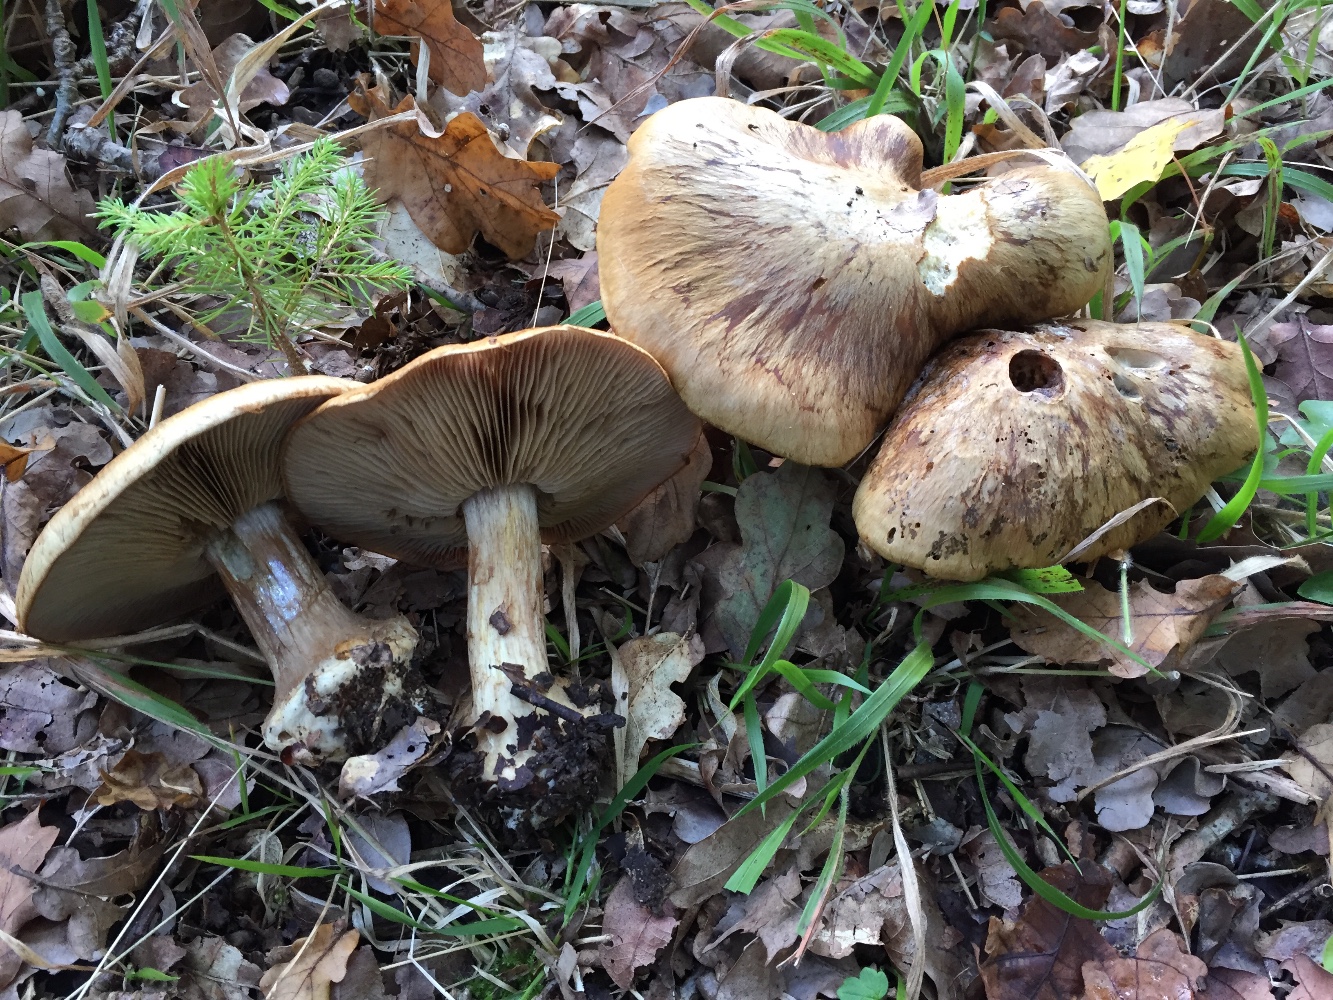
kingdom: Fungi
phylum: Basidiomycota
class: Agaricomycetes
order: Agaricales
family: Cortinariaceae
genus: Phlegmacium
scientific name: Phlegmacium
